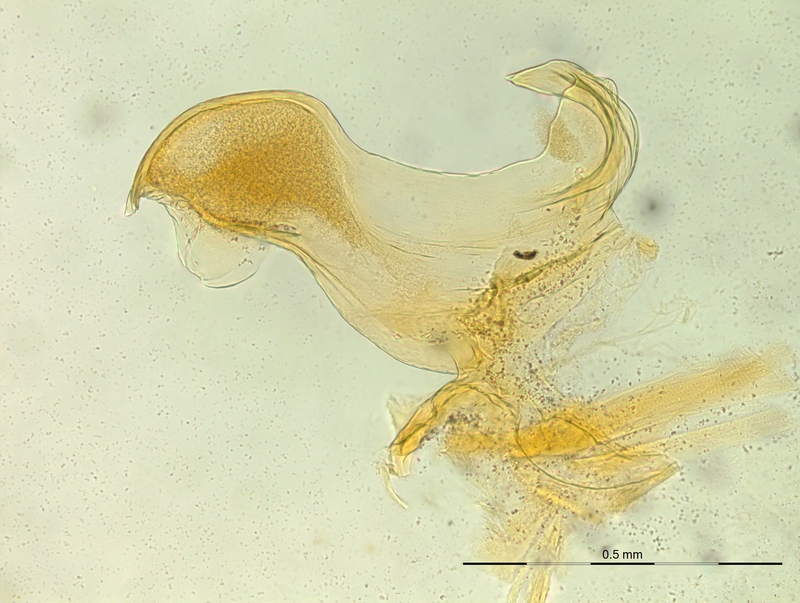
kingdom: Animalia
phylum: Arthropoda
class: Diplopoda
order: Chordeumatida
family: Craspedosomatidae
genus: Rhymogona
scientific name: Rhymogona montivaga
